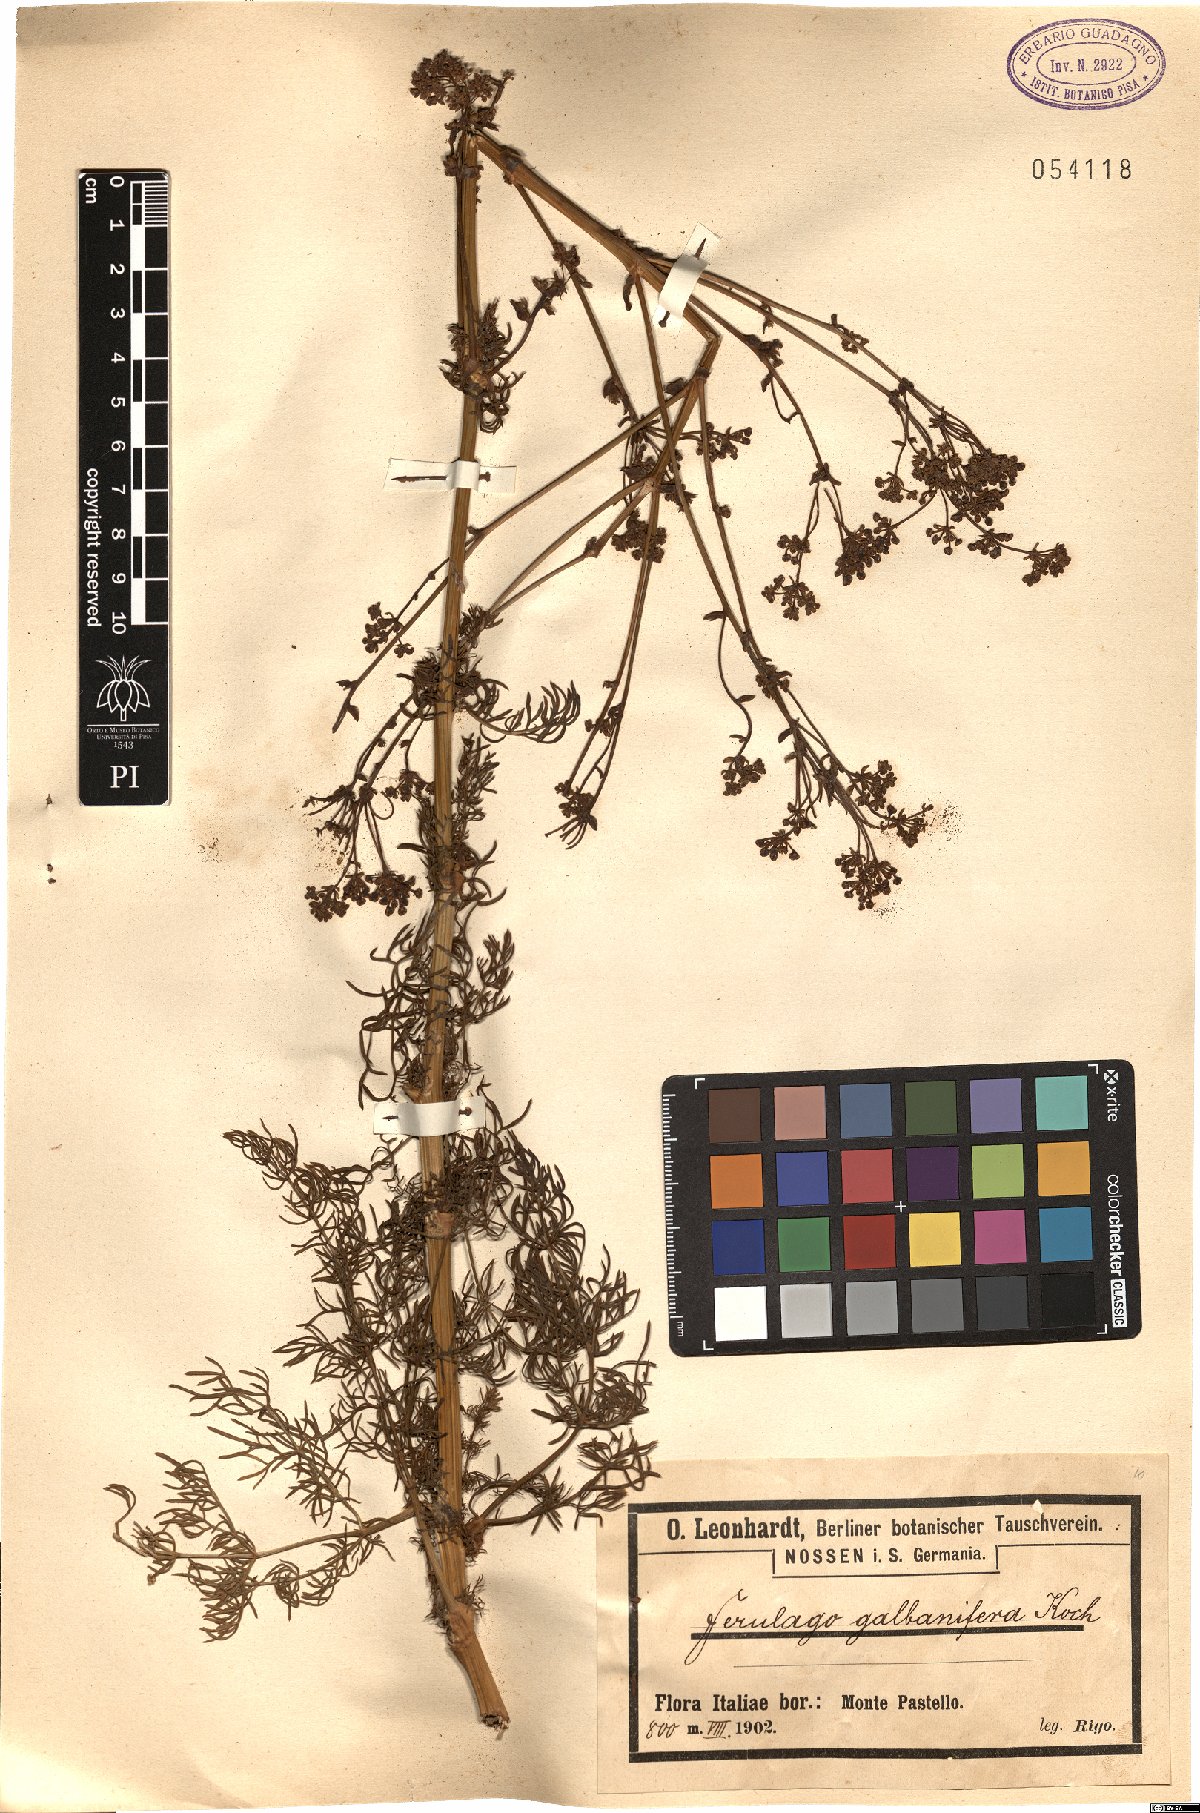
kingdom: Plantae
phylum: Tracheophyta
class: Magnoliopsida
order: Apiales
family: Apiaceae
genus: Ferulago
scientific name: Ferulago galbanifera
